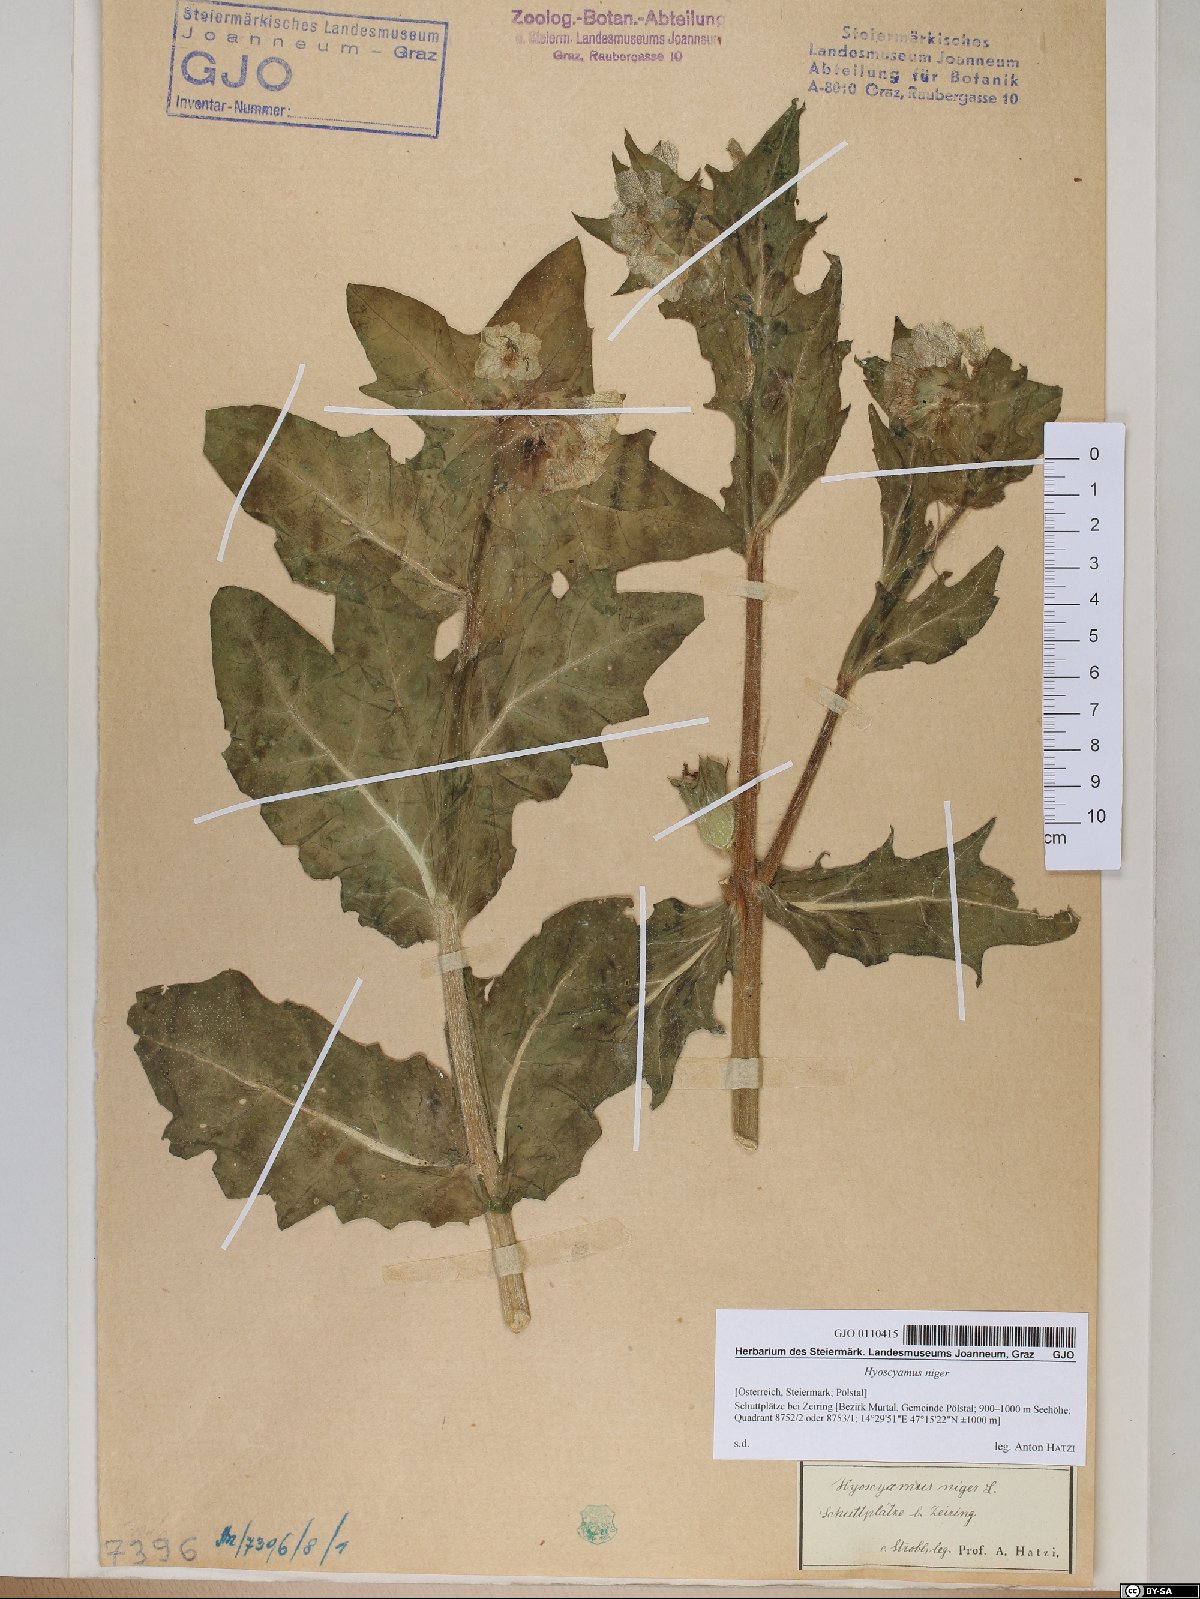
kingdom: Plantae
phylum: Tracheophyta
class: Magnoliopsida
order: Solanales
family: Solanaceae
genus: Hyoscyamus
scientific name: Hyoscyamus niger
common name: Henbane
